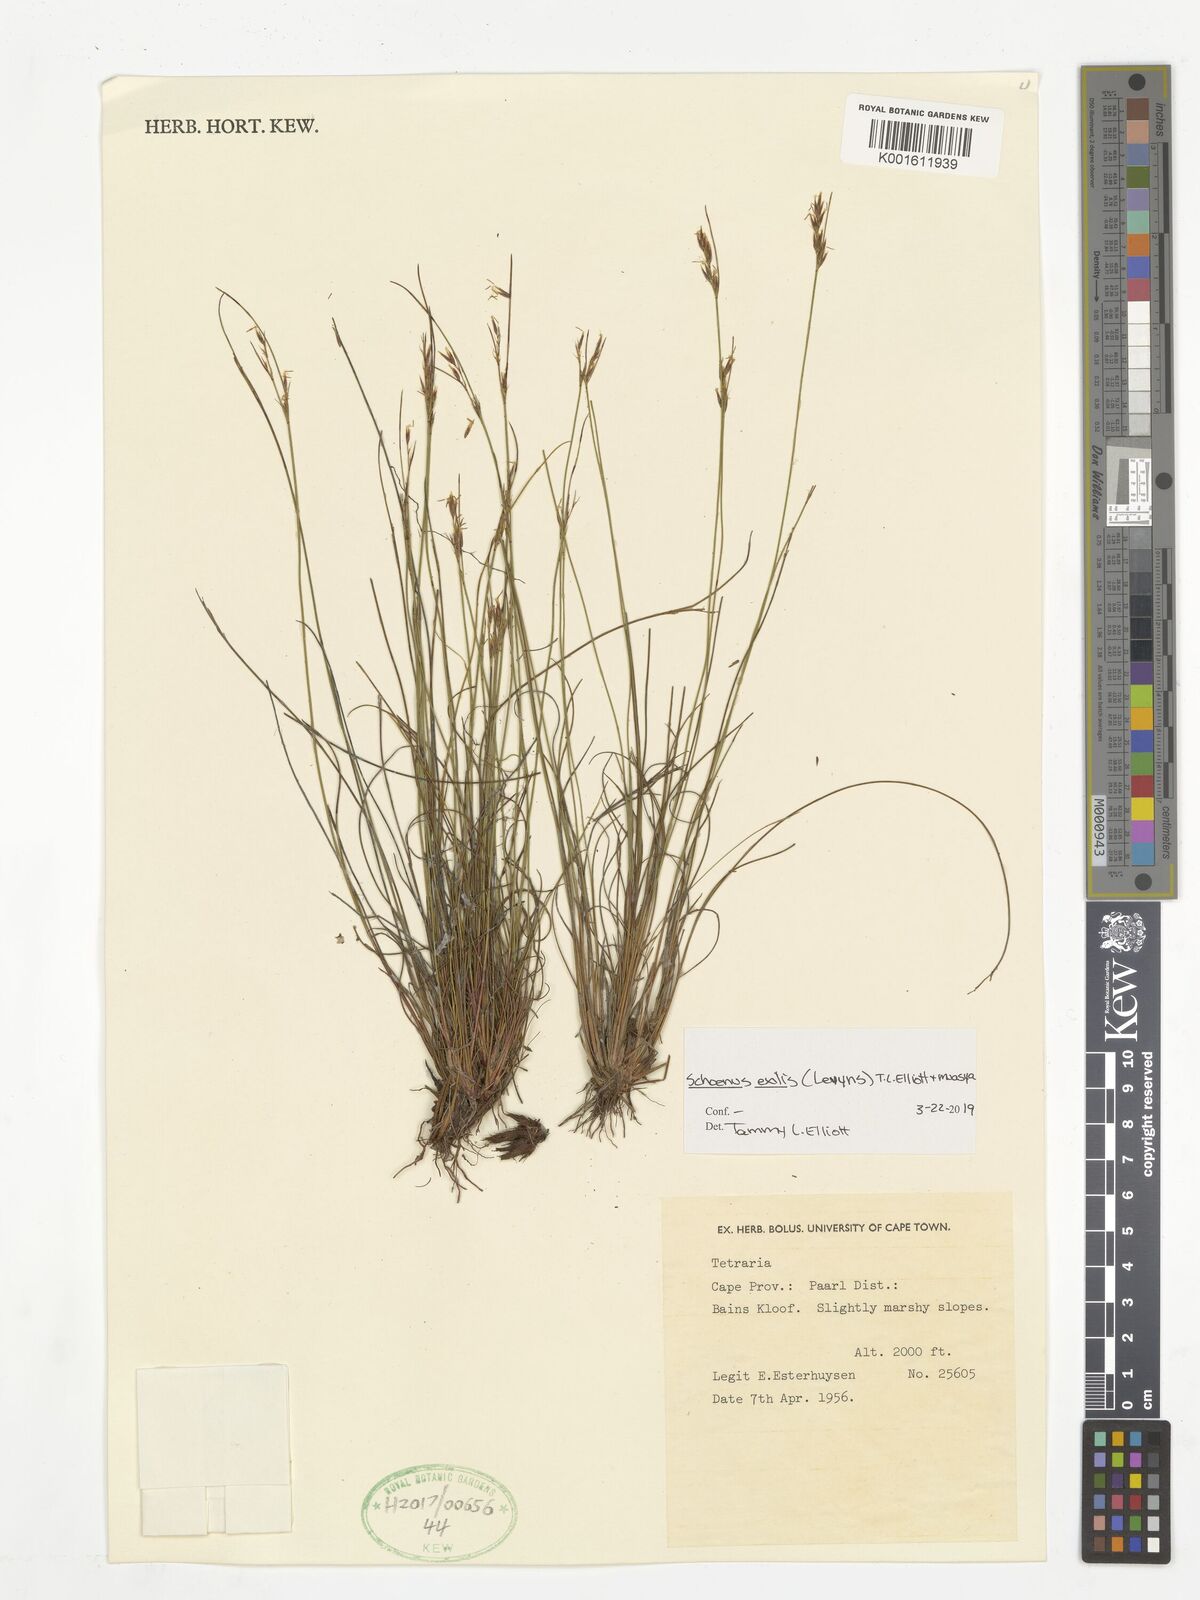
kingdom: Plantae
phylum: Tracheophyta
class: Liliopsida
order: Poales
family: Cyperaceae
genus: Schoenus
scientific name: Schoenus exilis
